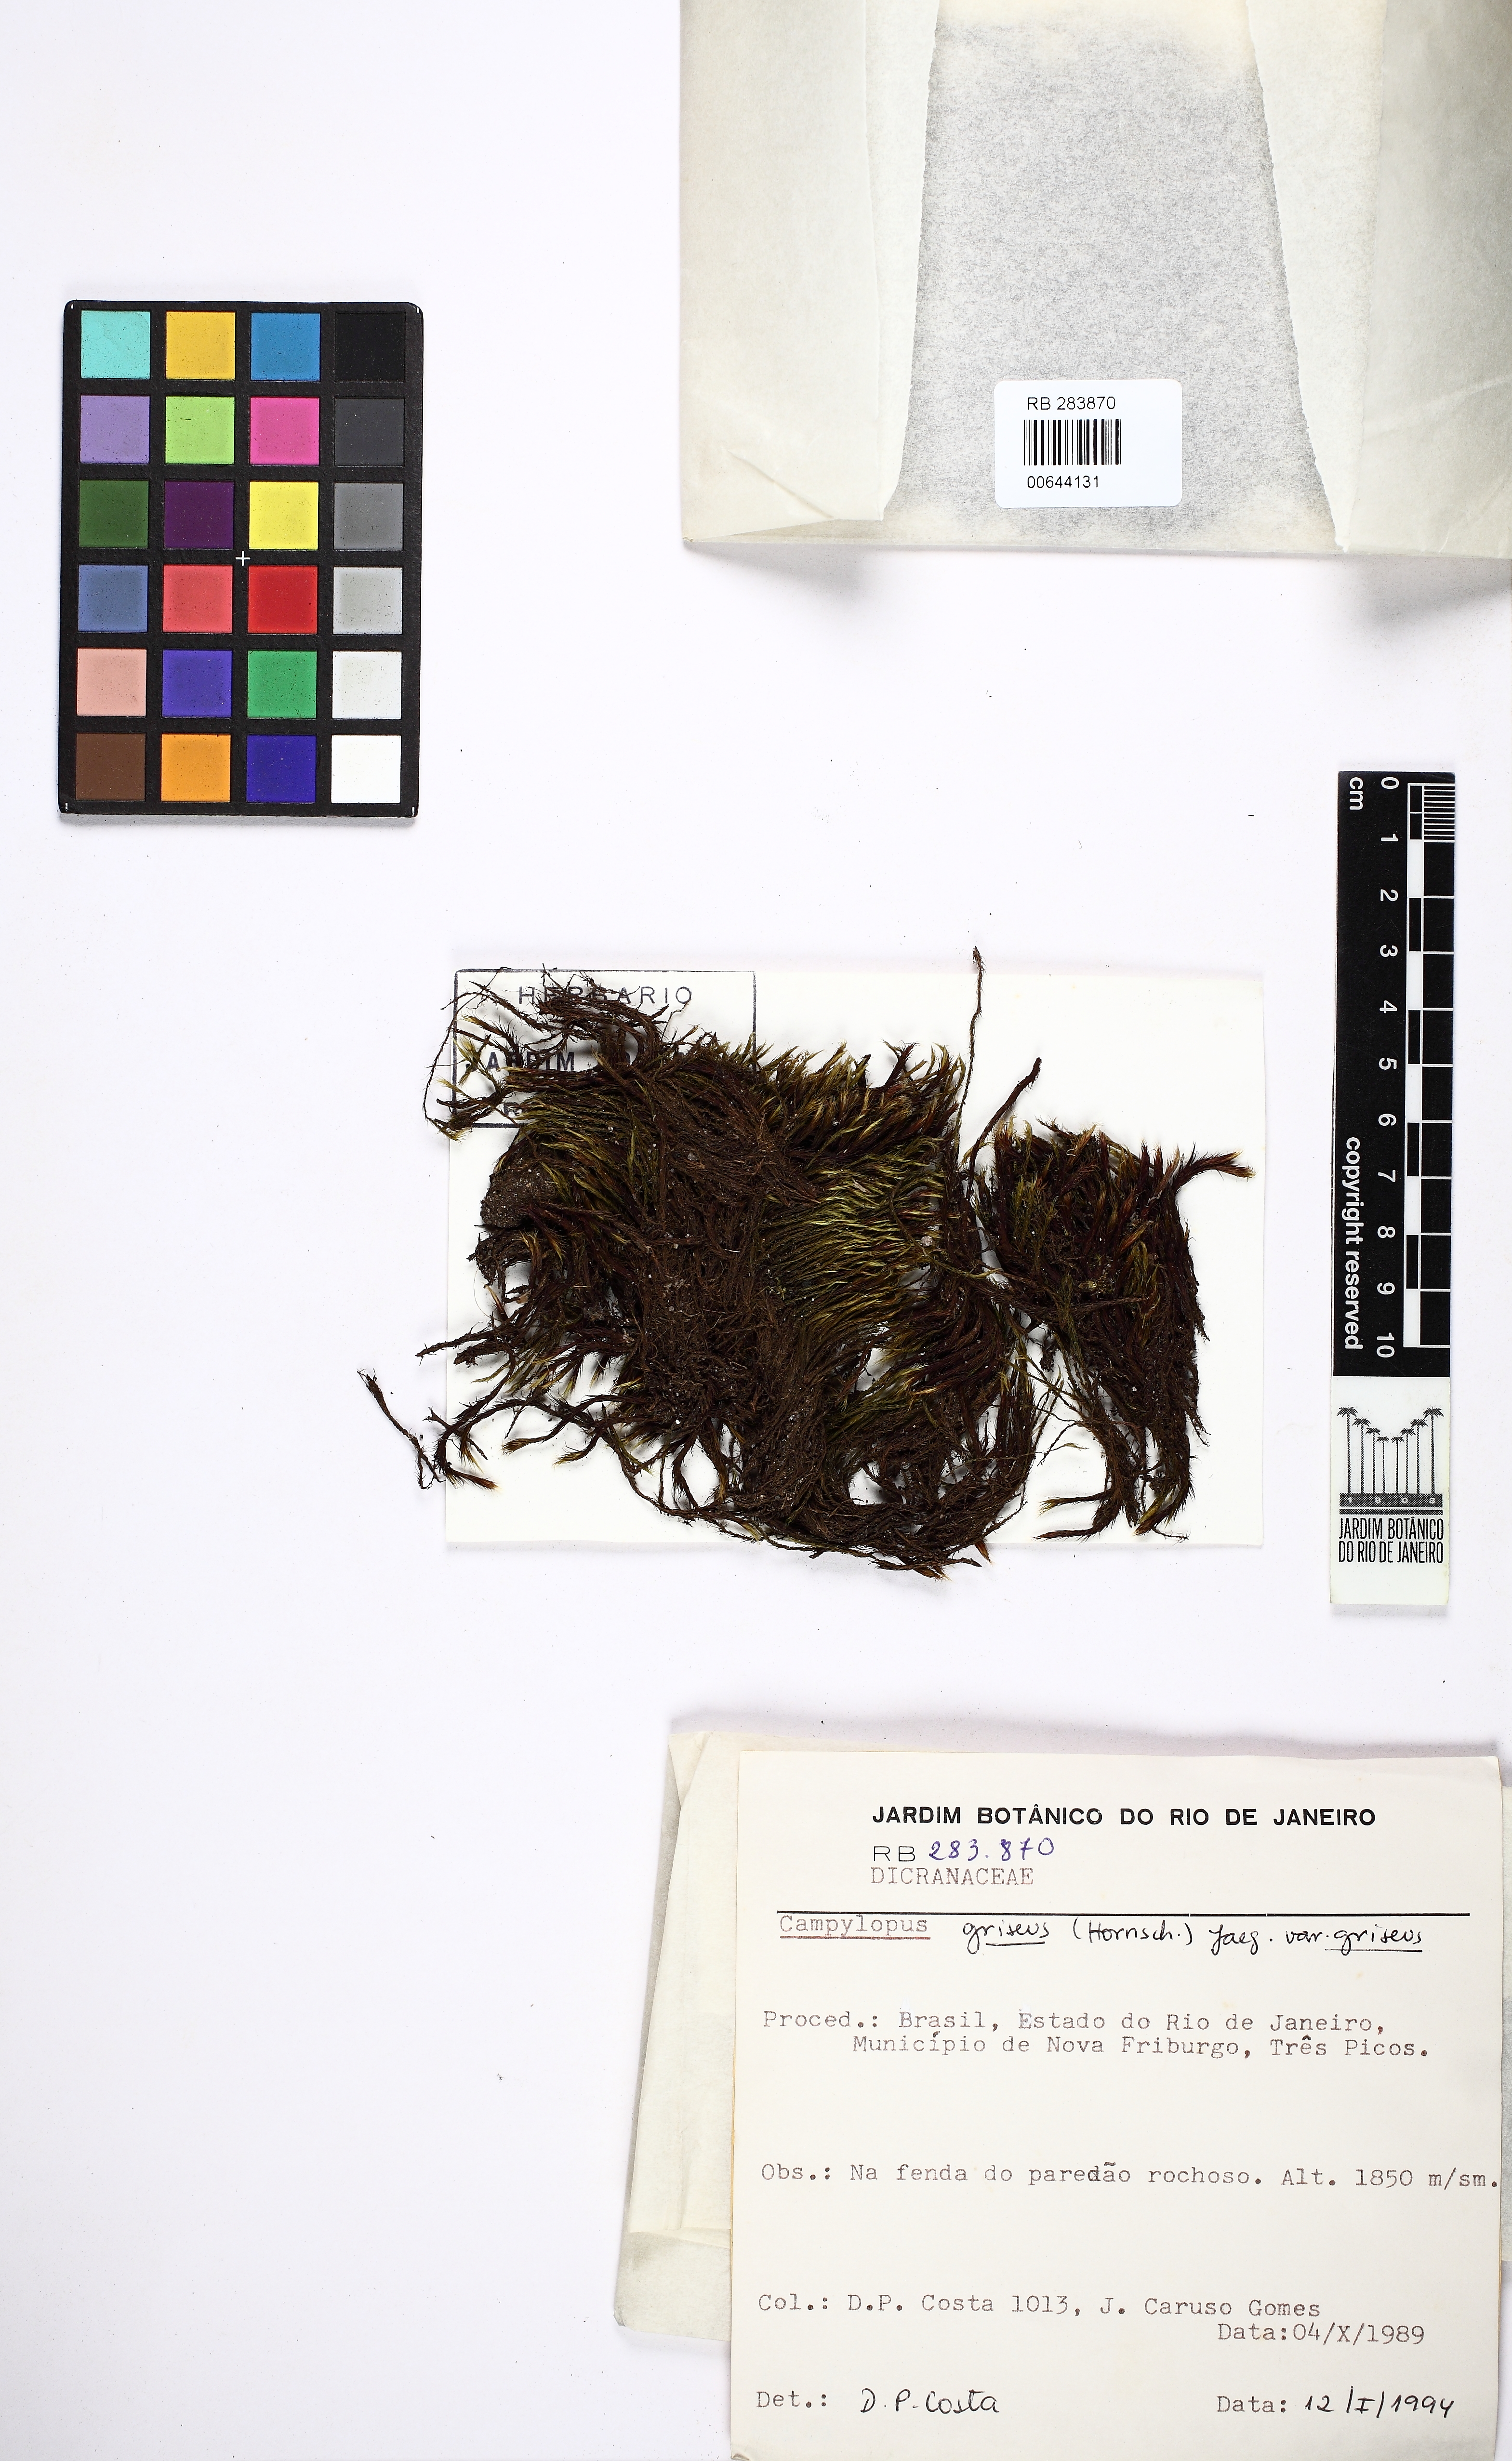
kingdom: Plantae
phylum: Bryophyta
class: Bryopsida
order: Dicranales
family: Leucobryaceae
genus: Campylopus
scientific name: Campylopus griseus
